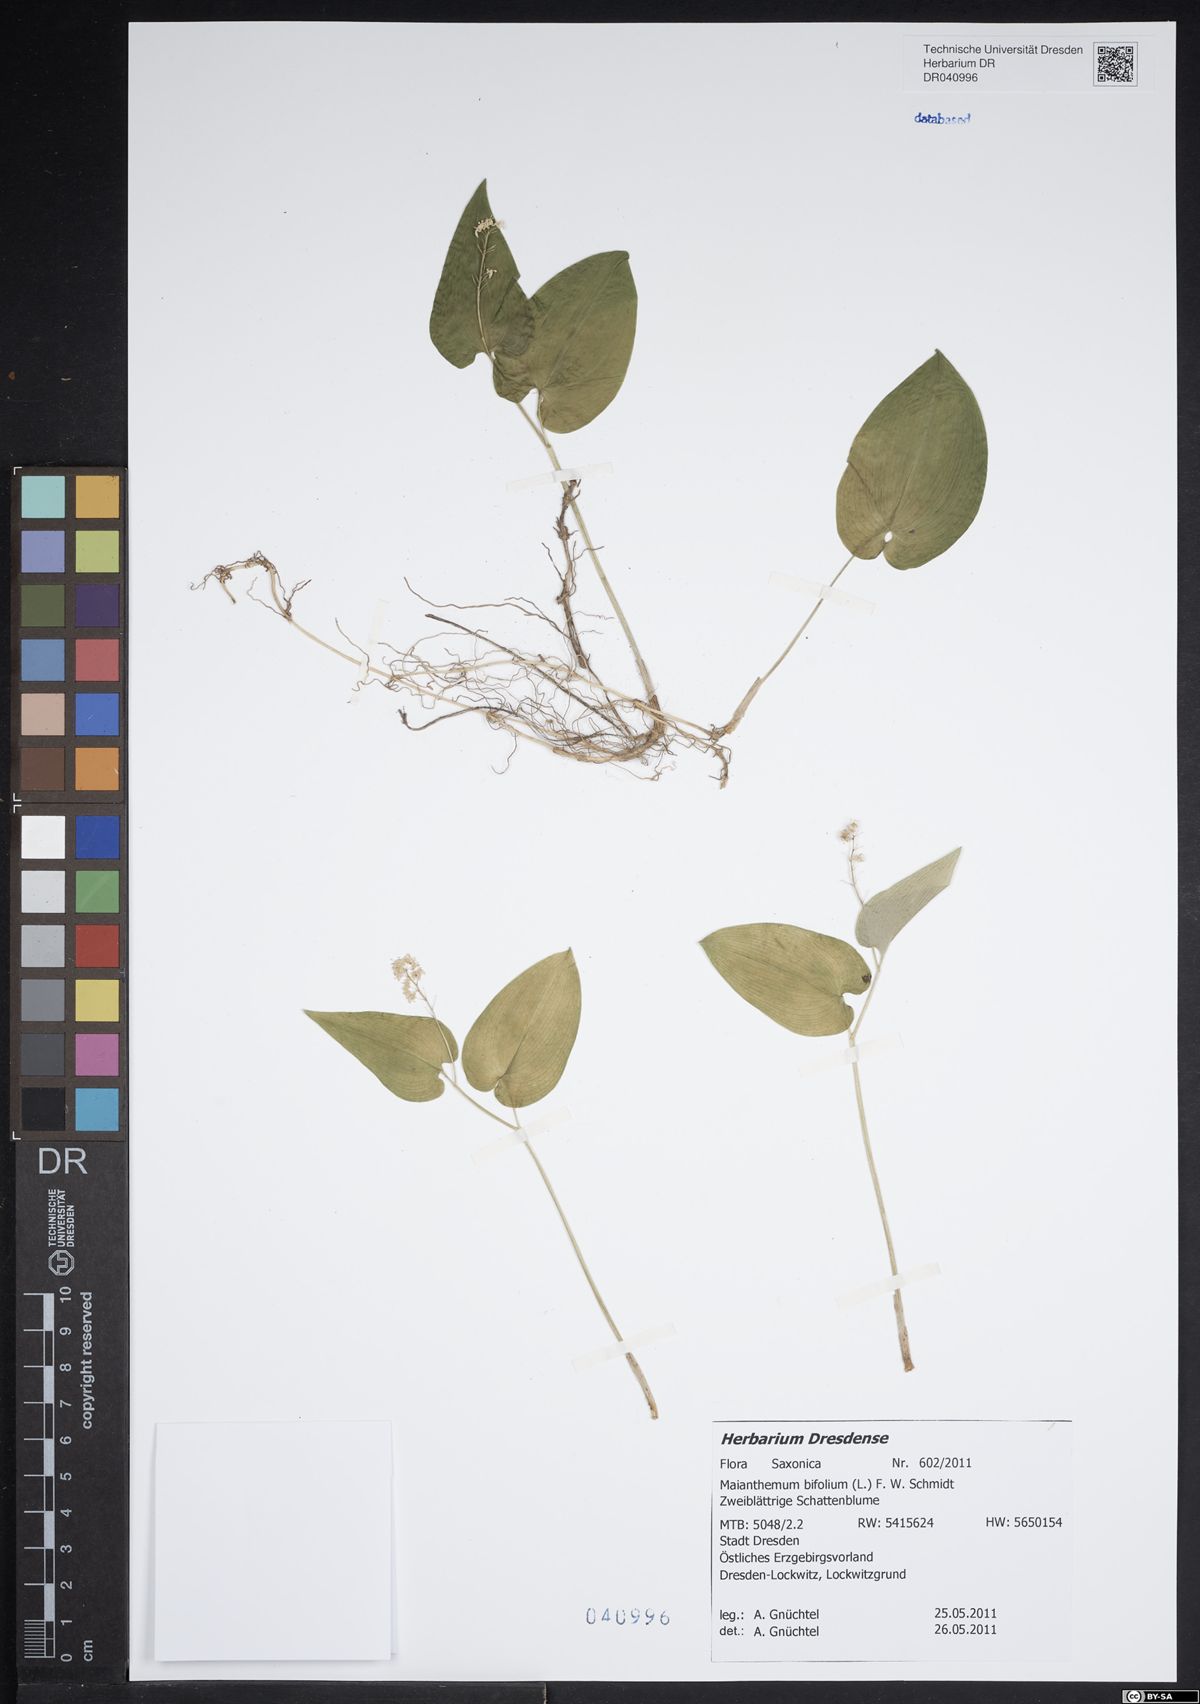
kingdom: Plantae
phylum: Tracheophyta
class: Liliopsida
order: Asparagales
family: Asparagaceae
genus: Maianthemum
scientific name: Maianthemum bifolium
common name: May lily
